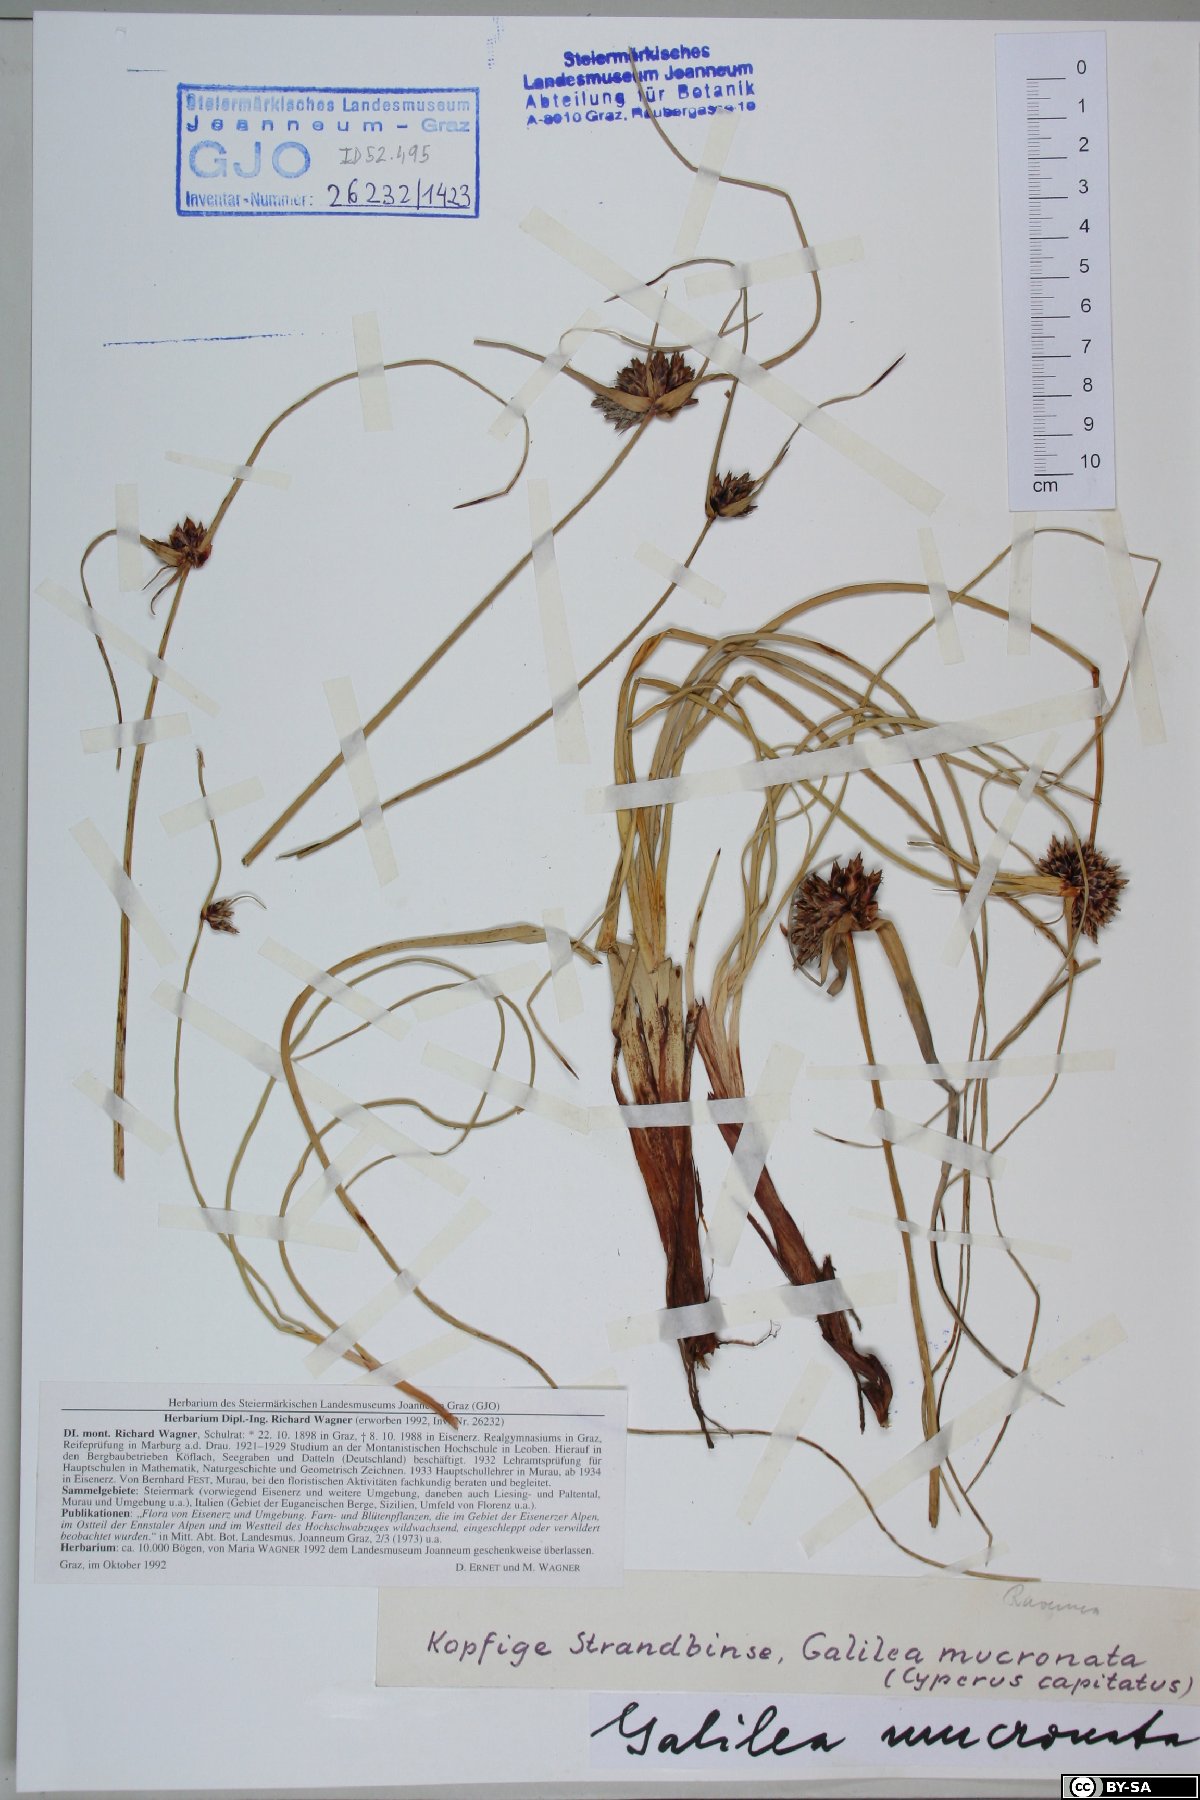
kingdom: Plantae
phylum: Tracheophyta
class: Liliopsida
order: Poales
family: Cyperaceae
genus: Cyperus
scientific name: Cyperus capitatus
